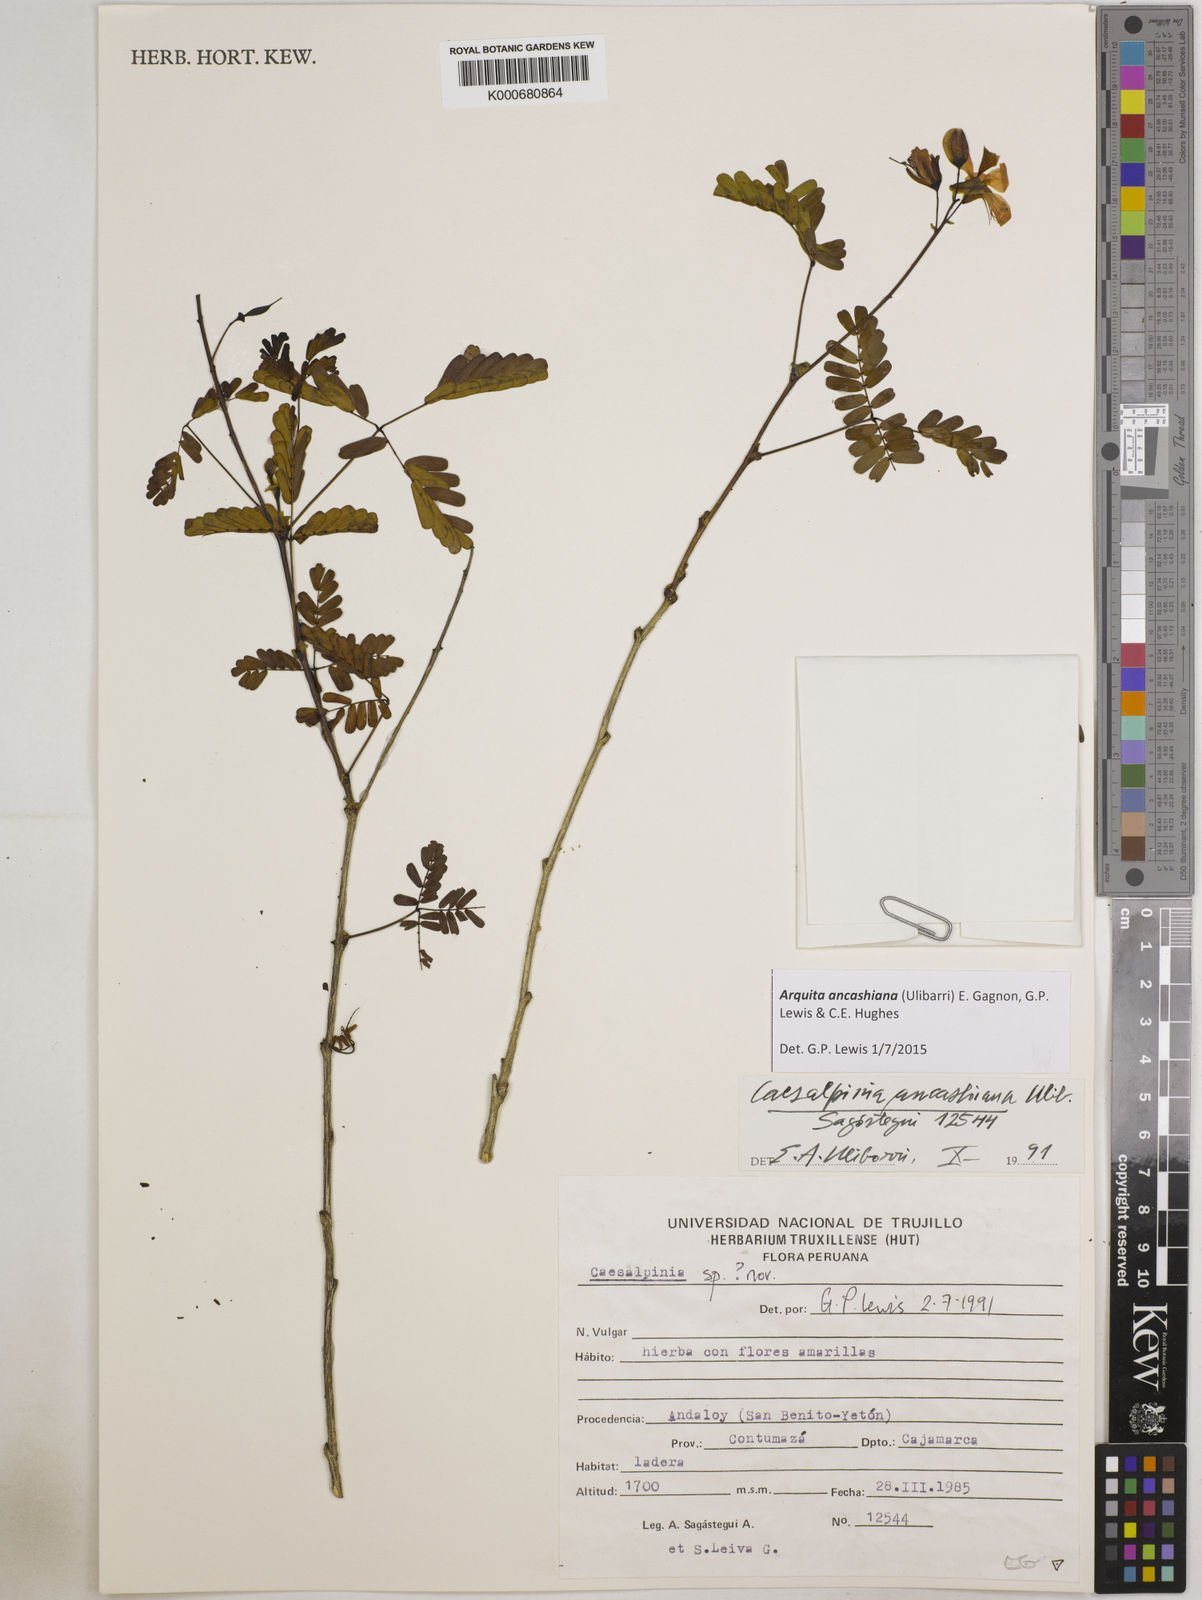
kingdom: Plantae
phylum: Tracheophyta
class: Magnoliopsida
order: Fabales
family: Fabaceae
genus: Arquita
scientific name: Arquita ancashiana
